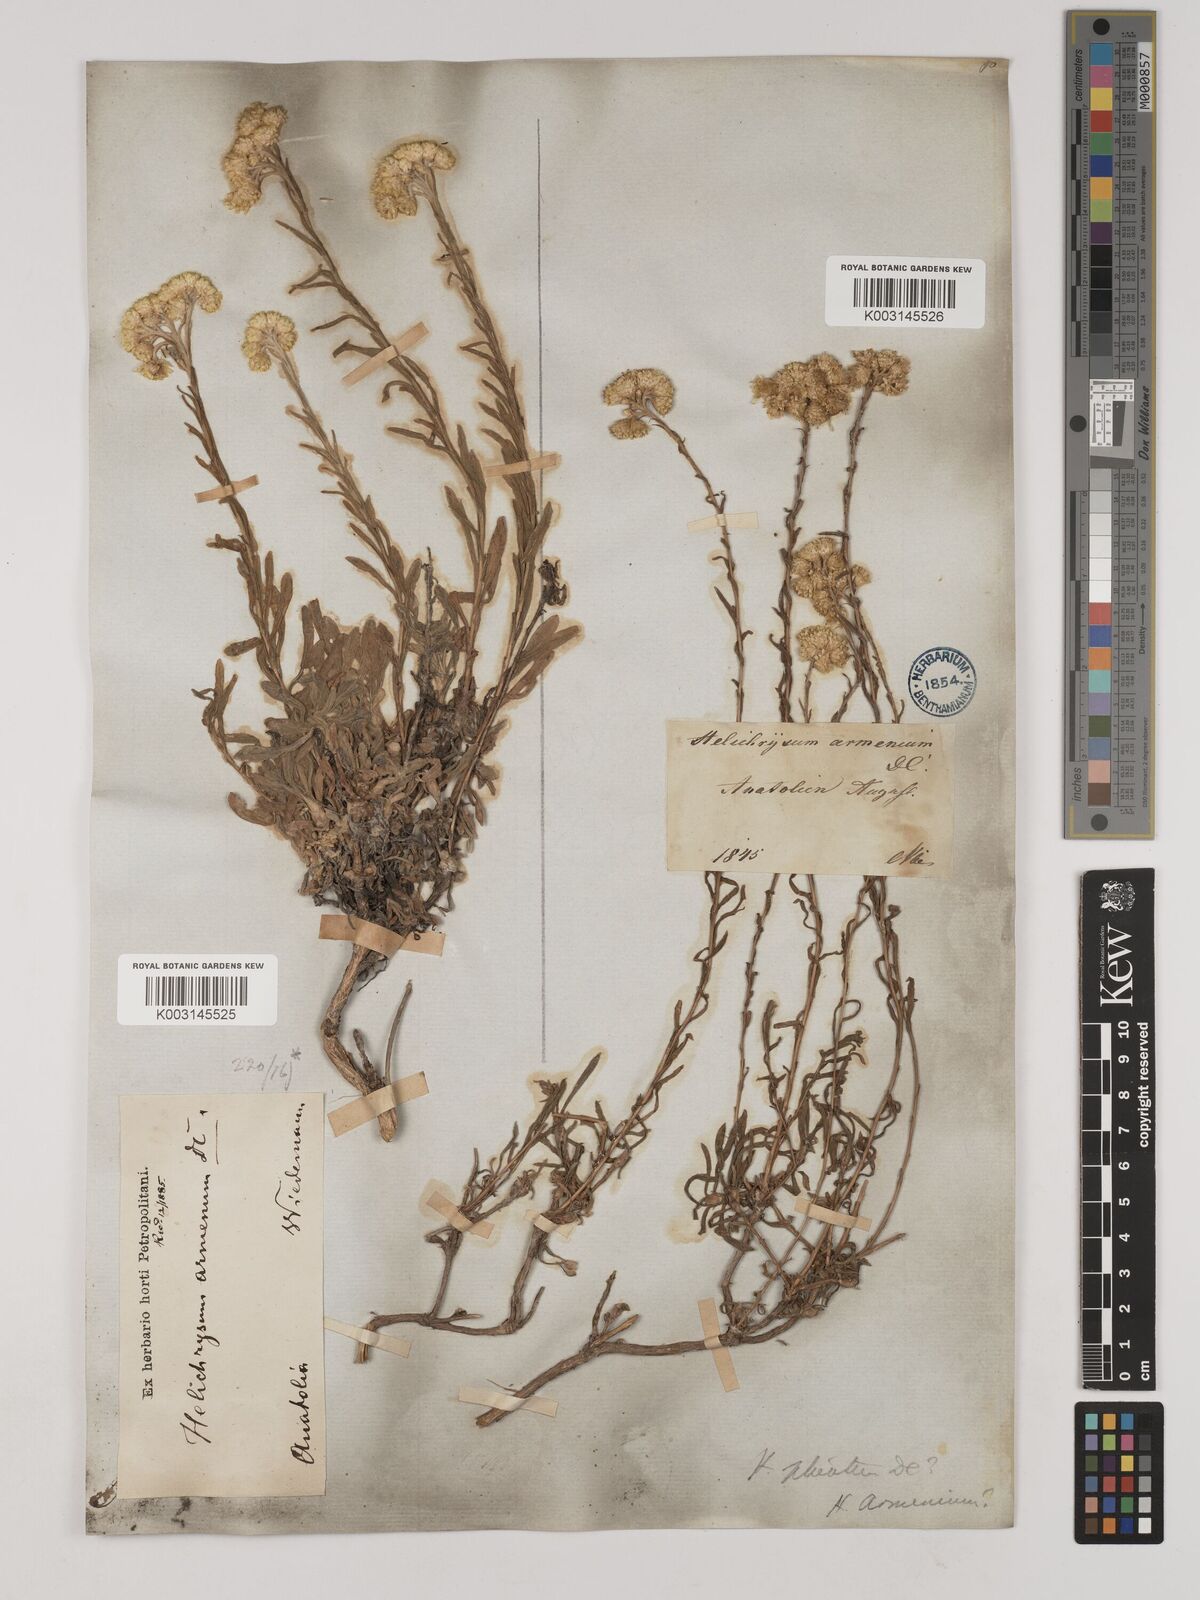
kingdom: Plantae
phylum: Tracheophyta
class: Magnoliopsida
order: Asterales
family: Asteraceae
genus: Helichrysum
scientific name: Helichrysum armenium
